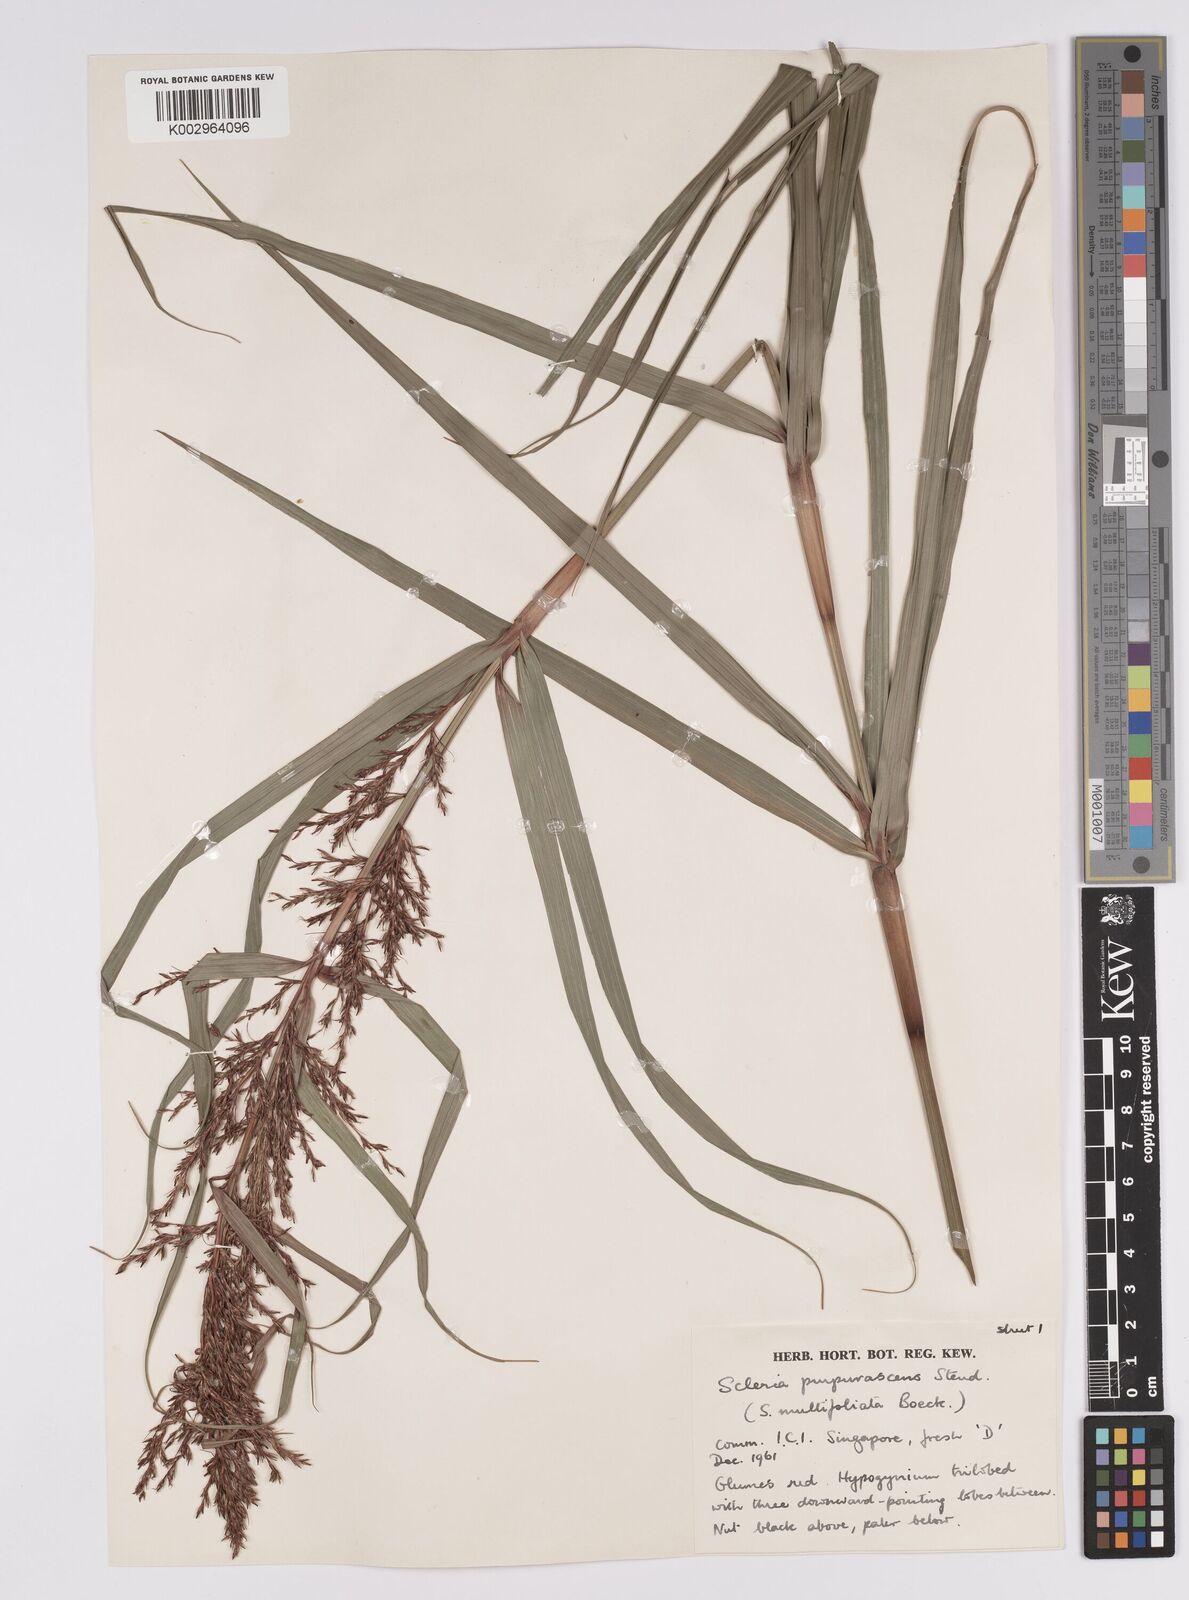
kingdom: Plantae
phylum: Tracheophyta
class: Liliopsida
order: Poales
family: Cyperaceae
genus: Scleria
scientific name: Scleria purpurascens
